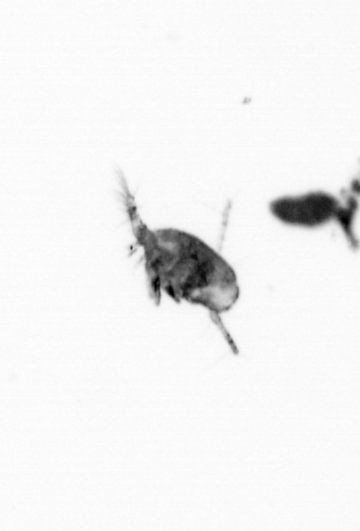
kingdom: Animalia
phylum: Arthropoda
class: Copepoda
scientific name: Copepoda
